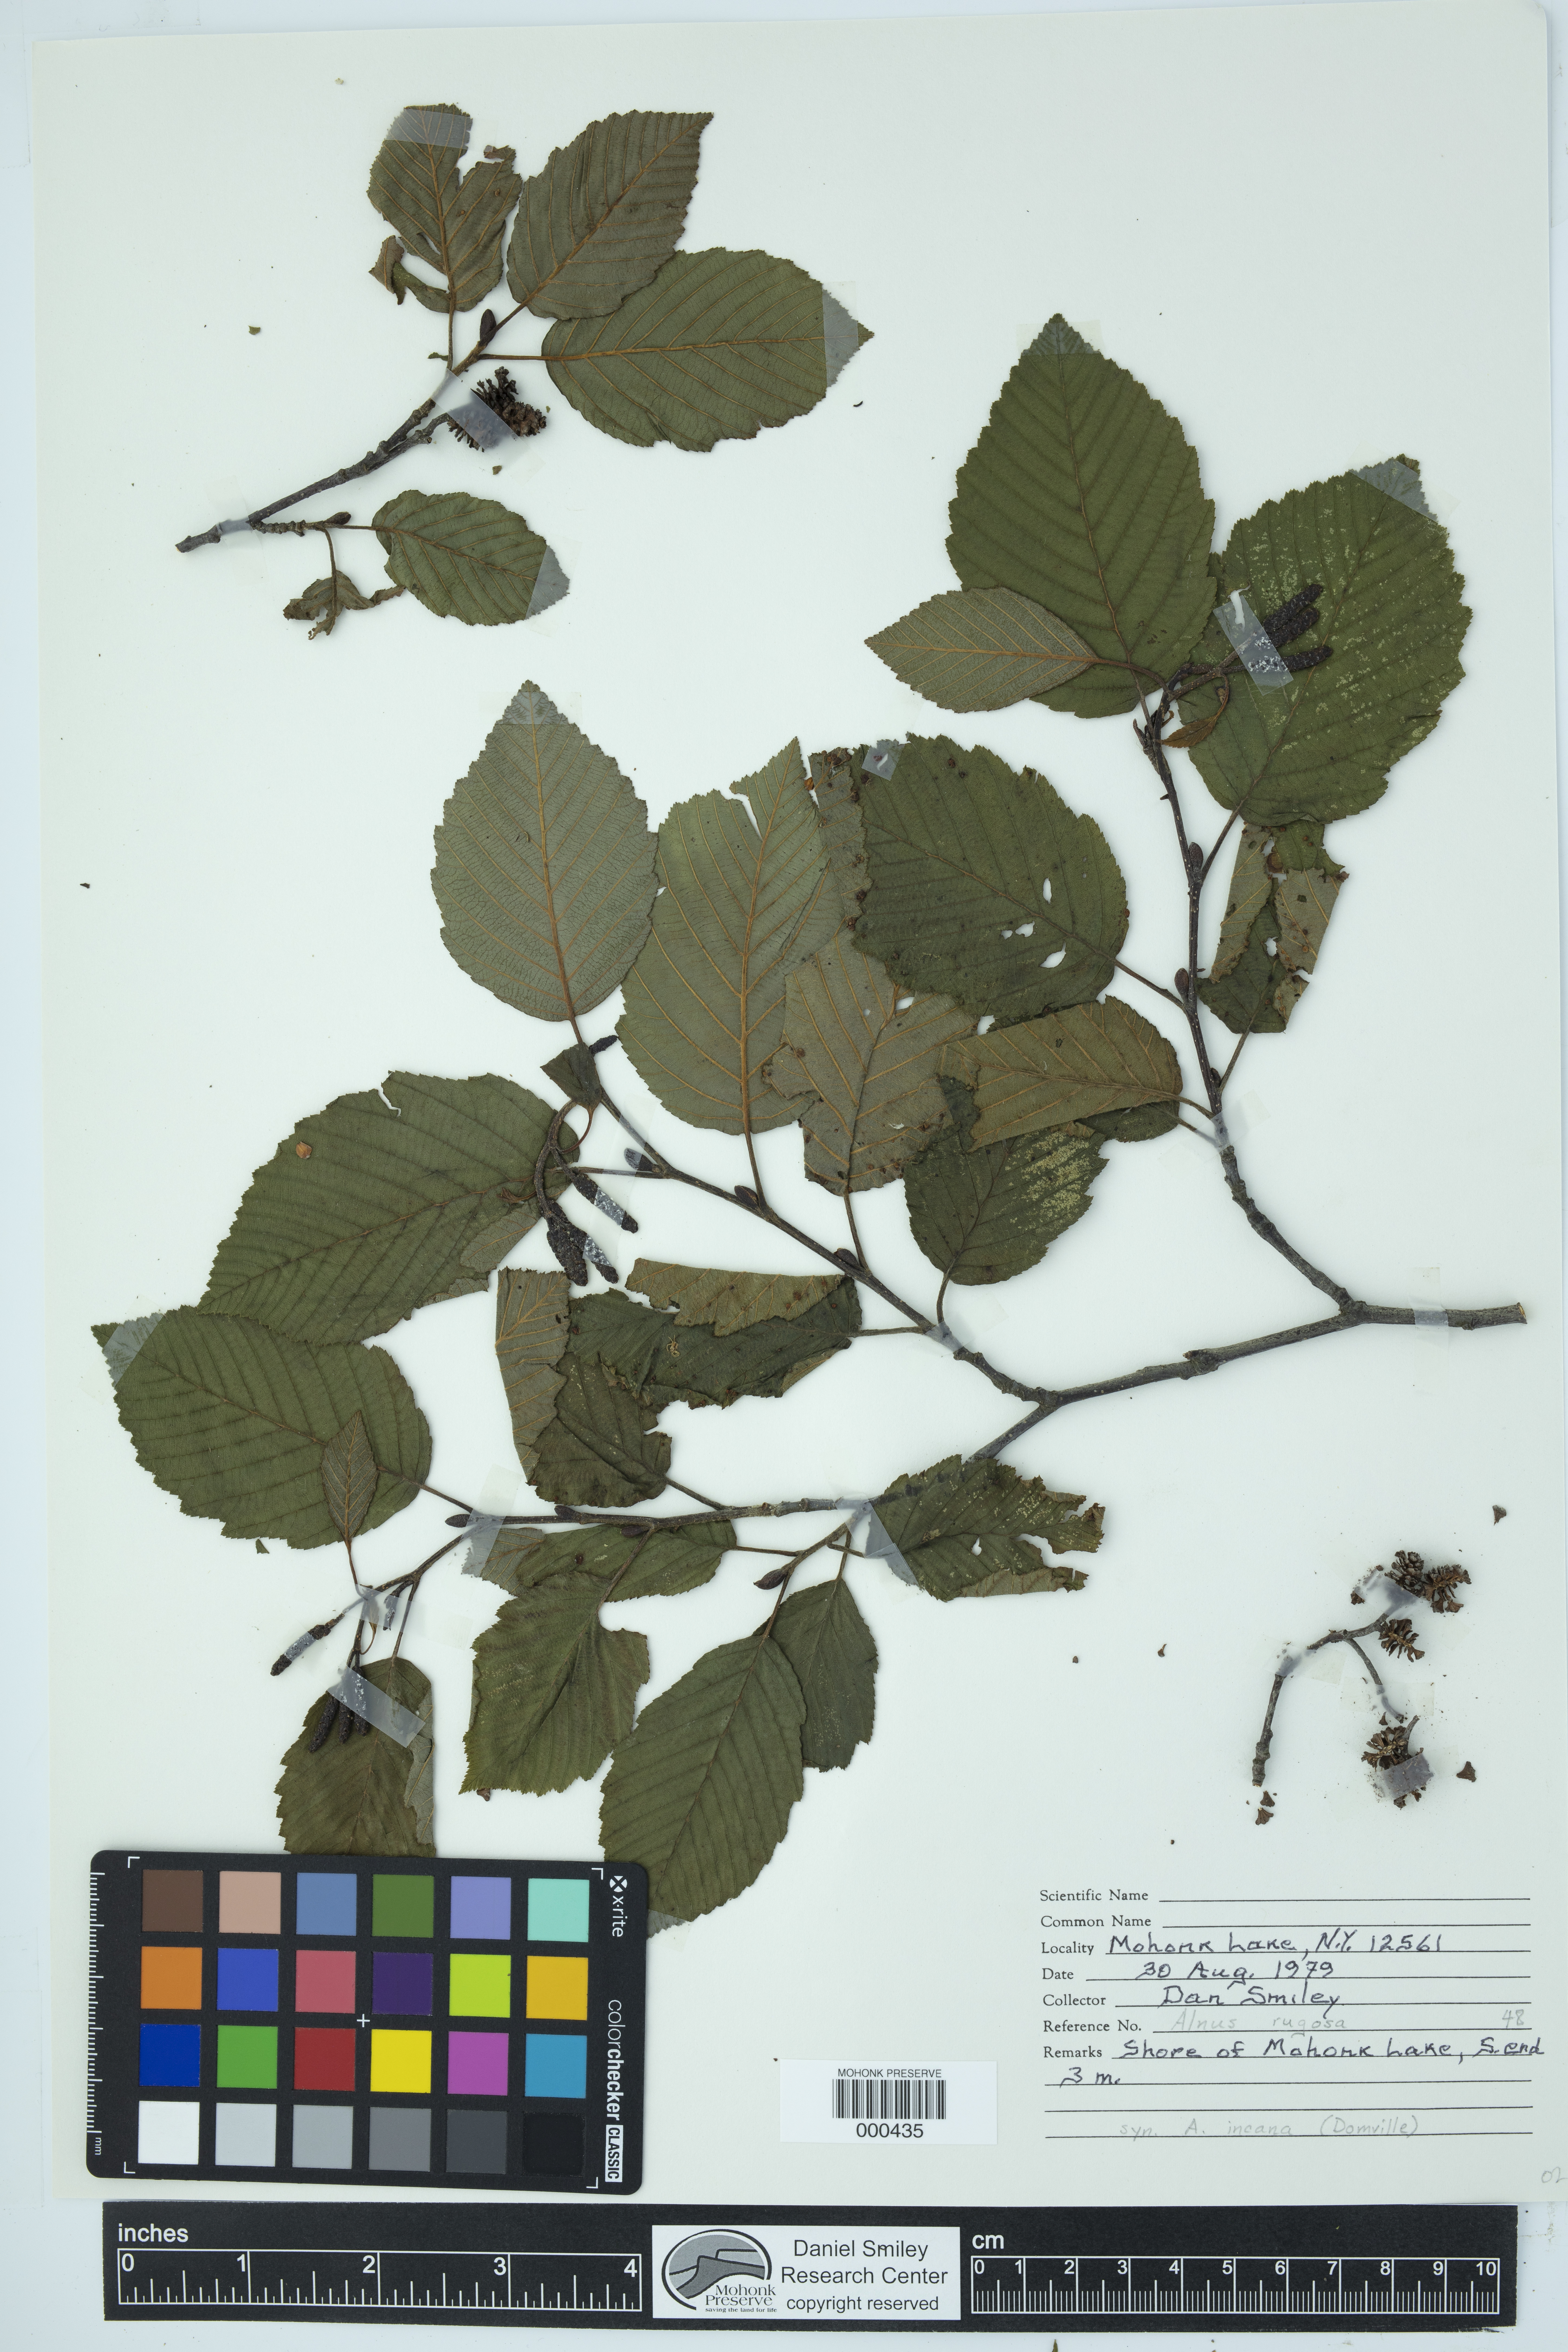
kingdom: Plantae
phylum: Tracheophyta
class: Magnoliopsida
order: Fagales
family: Betulaceae
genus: Alnus
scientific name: Alnus incana
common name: Grey alder
